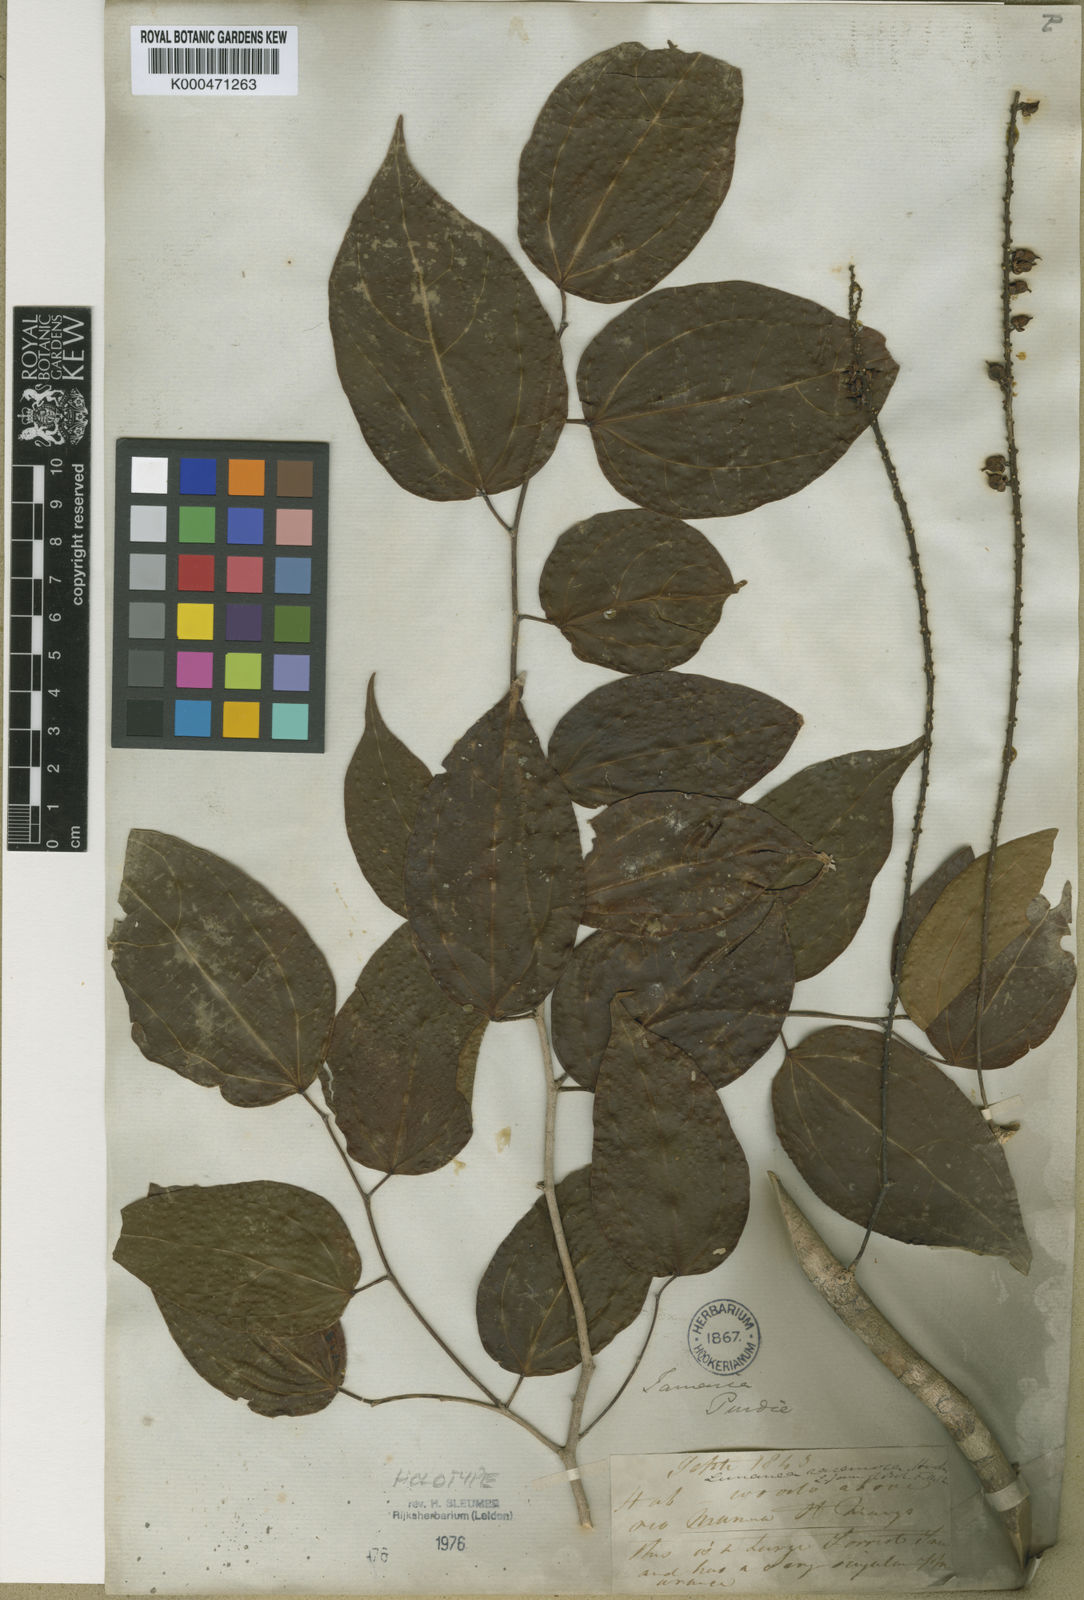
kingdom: Plantae
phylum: Tracheophyta
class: Magnoliopsida
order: Malpighiales
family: Salicaceae
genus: Lunania
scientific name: Lunania racemosa
